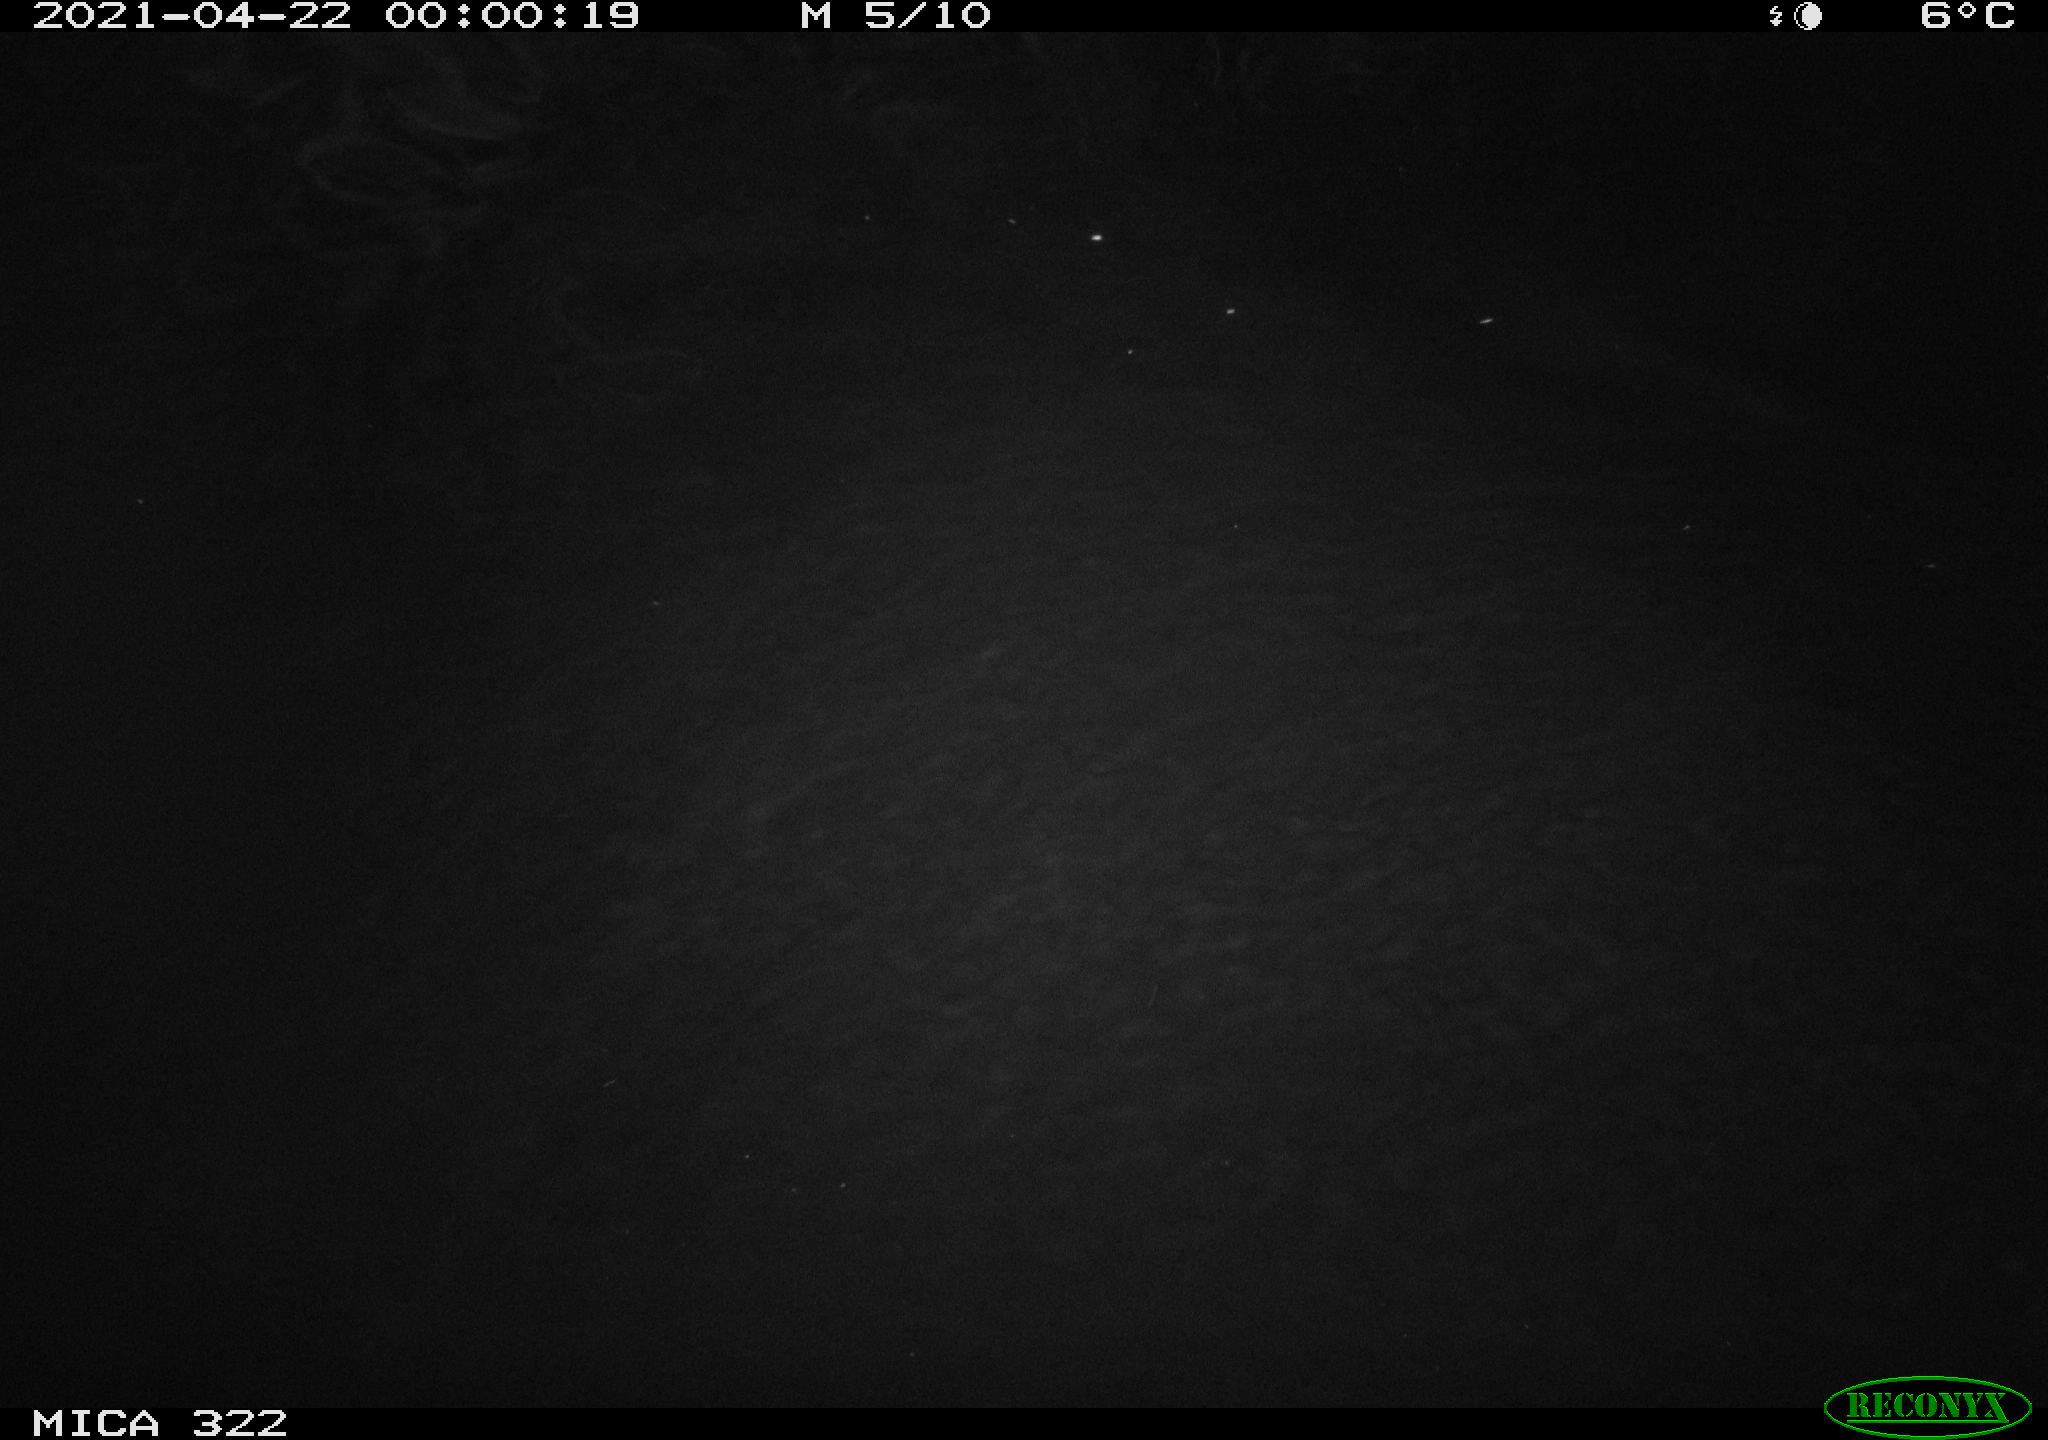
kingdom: Animalia
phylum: Chordata
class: Aves
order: Anseriformes
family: Anatidae
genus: Anas
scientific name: Anas platyrhynchos
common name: Mallard
